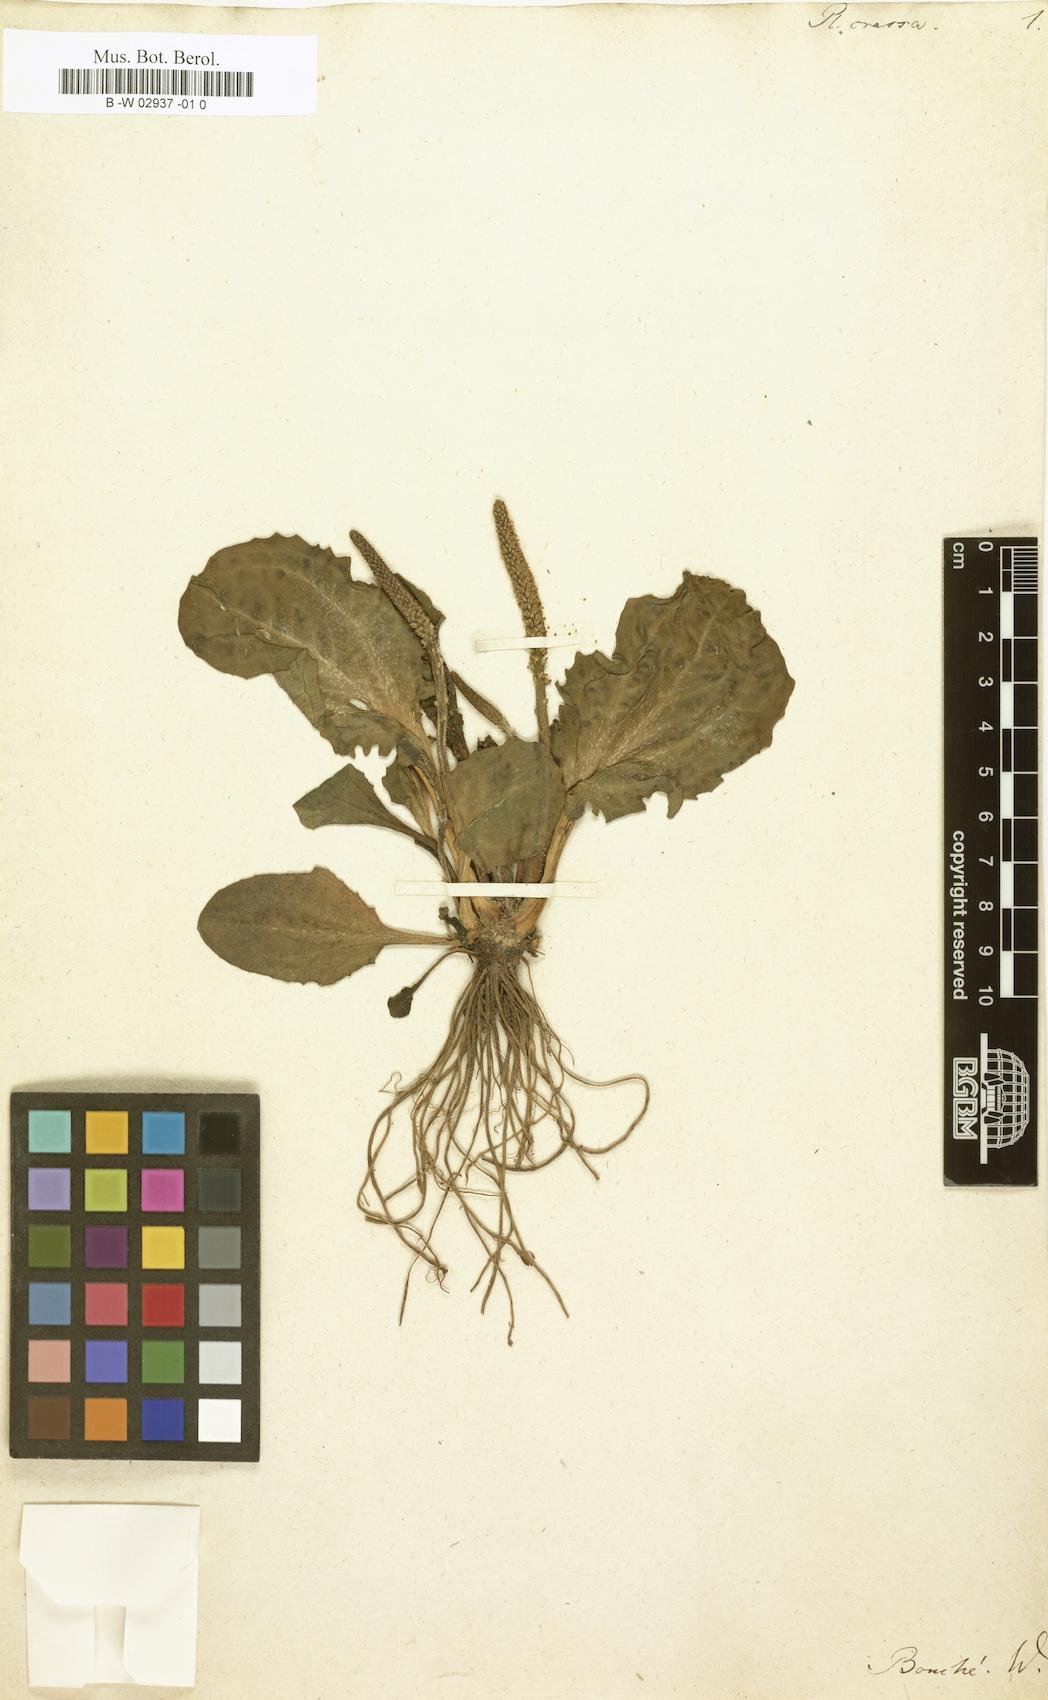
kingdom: Plantae
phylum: Tracheophyta
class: Magnoliopsida
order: Lamiales
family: Plantaginaceae
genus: Plantago
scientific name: Plantago sempervirens
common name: Shrubby plantain
